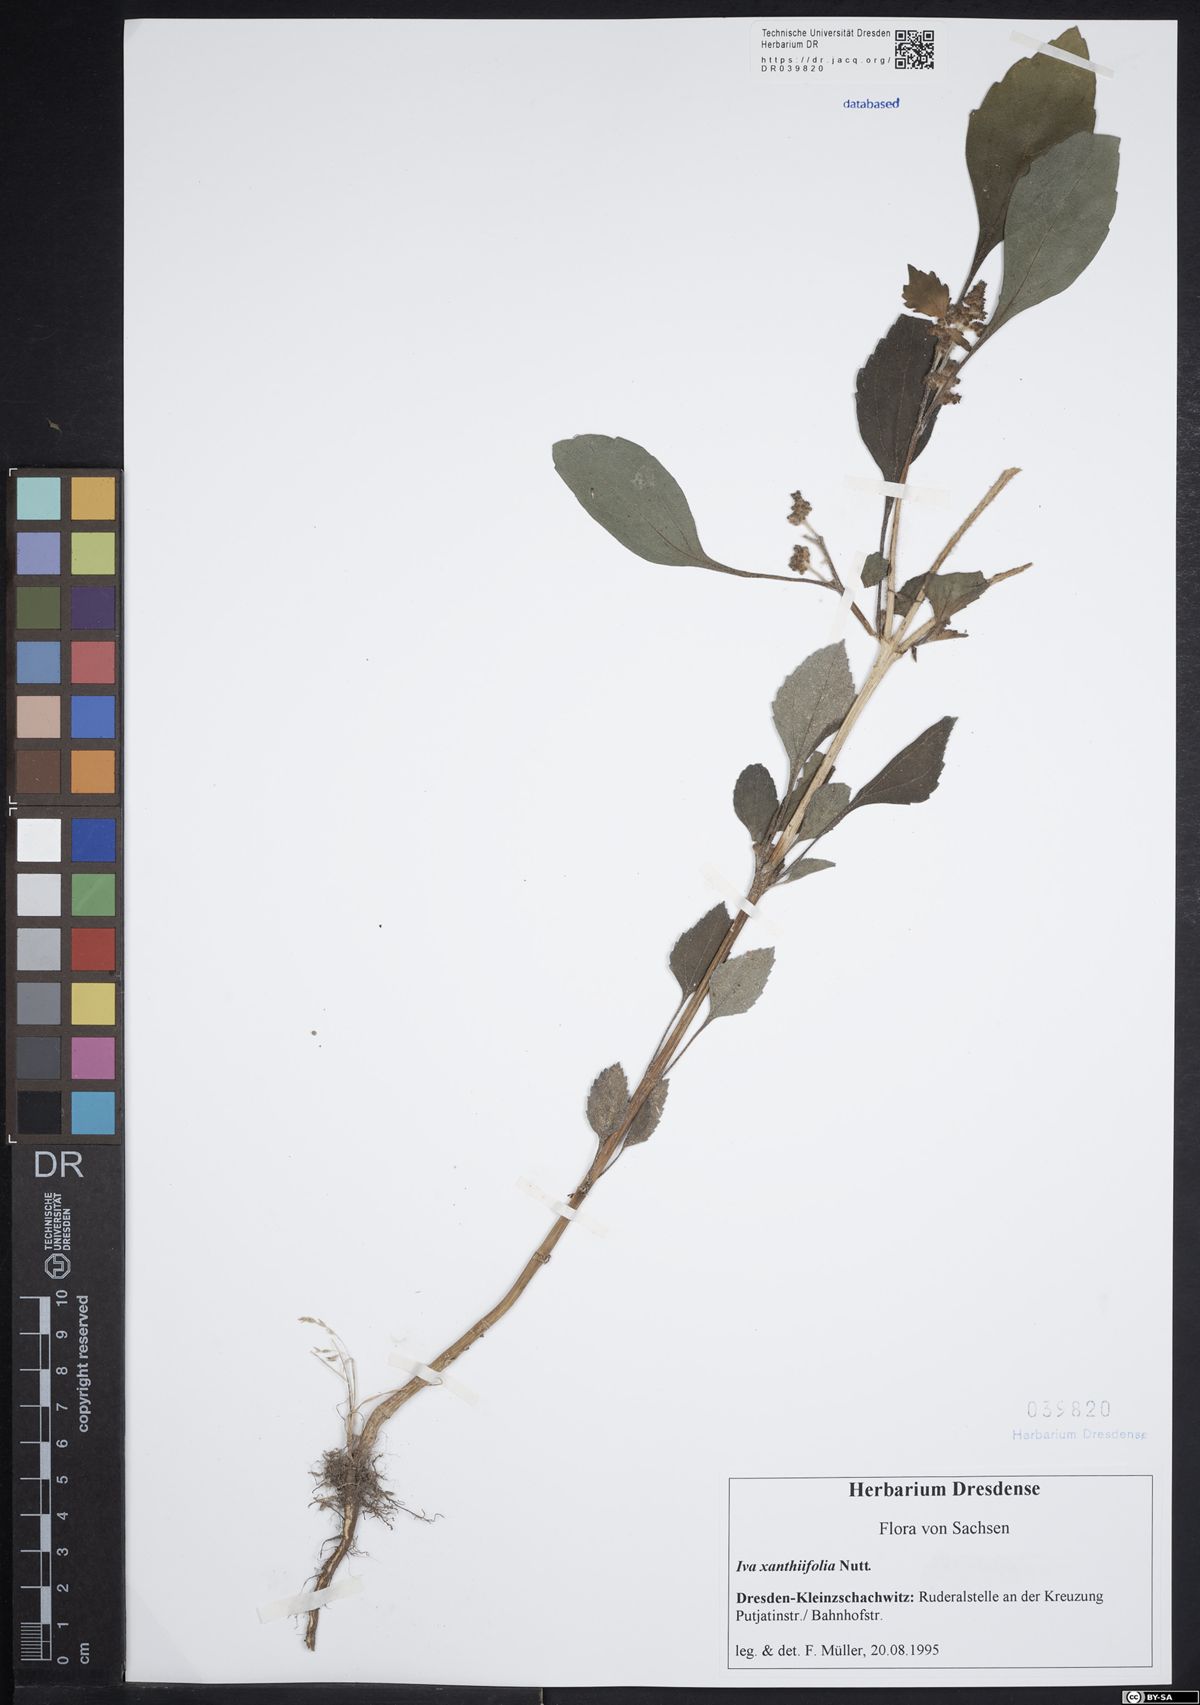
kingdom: Plantae
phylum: Tracheophyta
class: Magnoliopsida
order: Asterales
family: Asteraceae
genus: Cyclachaena
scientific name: Cyclachaena xanthiifolia
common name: Giant sumpweed
